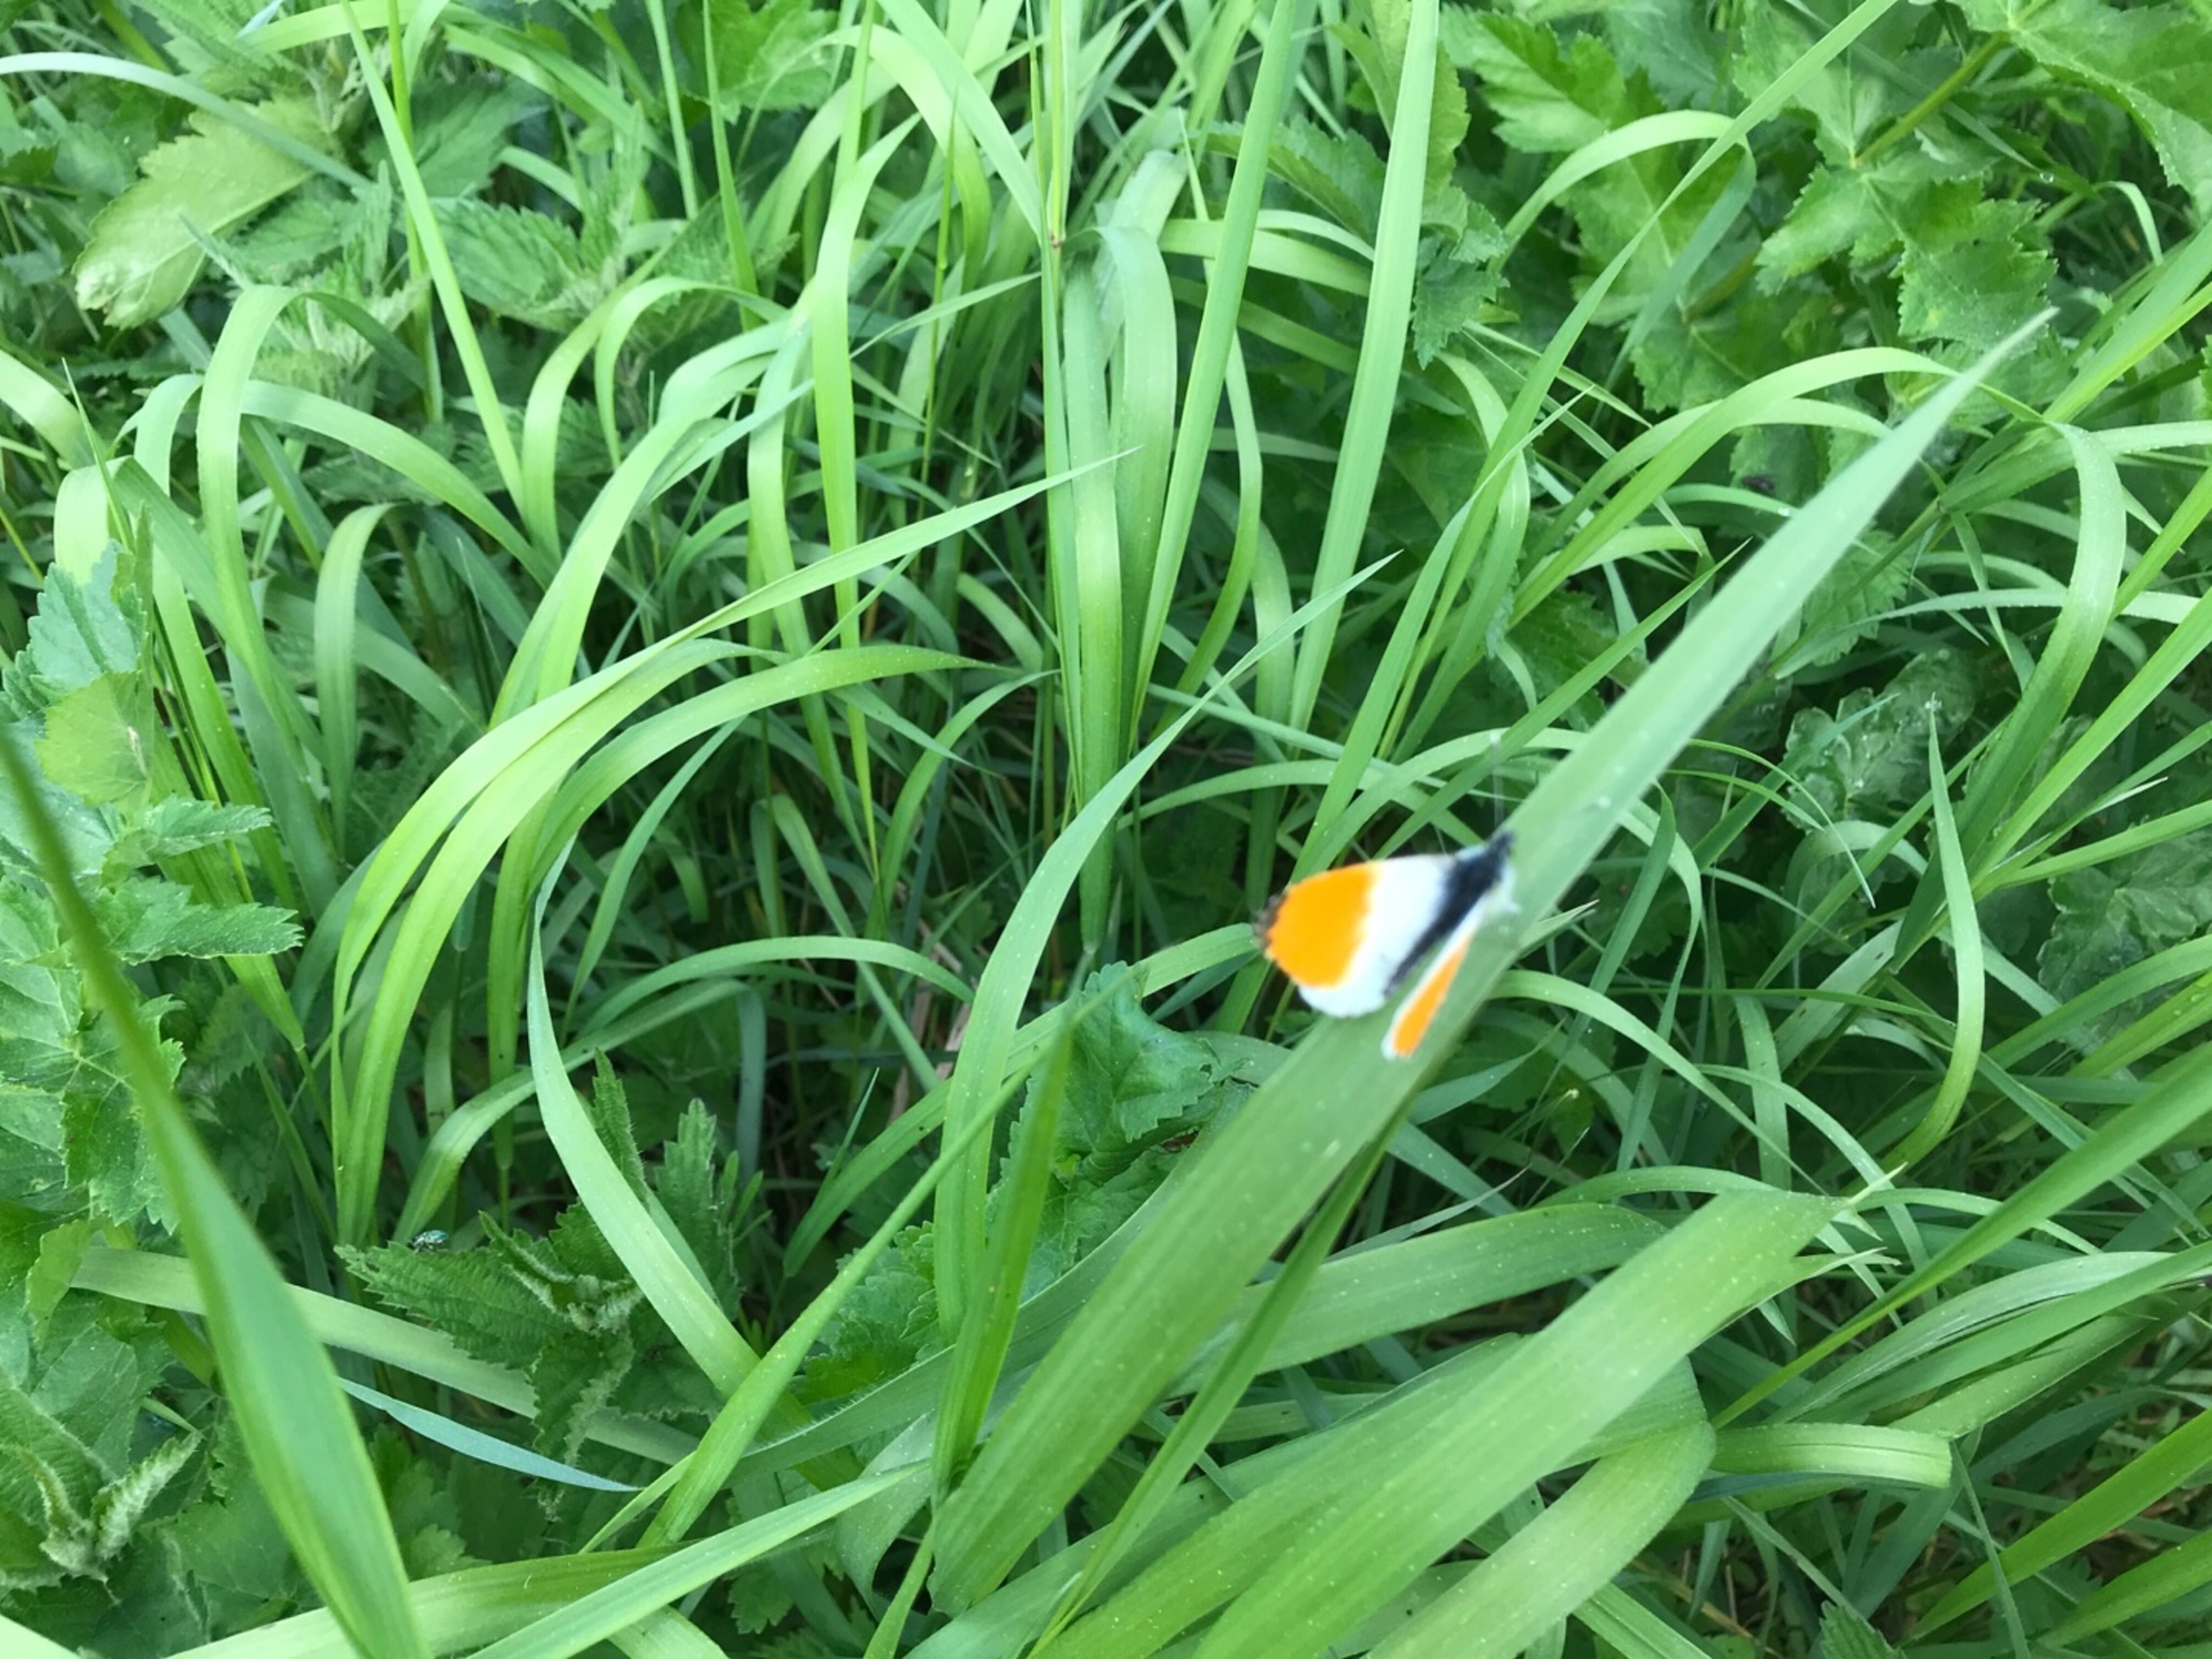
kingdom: Animalia
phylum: Arthropoda
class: Insecta
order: Lepidoptera
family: Pieridae
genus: Anthocharis
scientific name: Anthocharis cardamines
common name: Aurora
